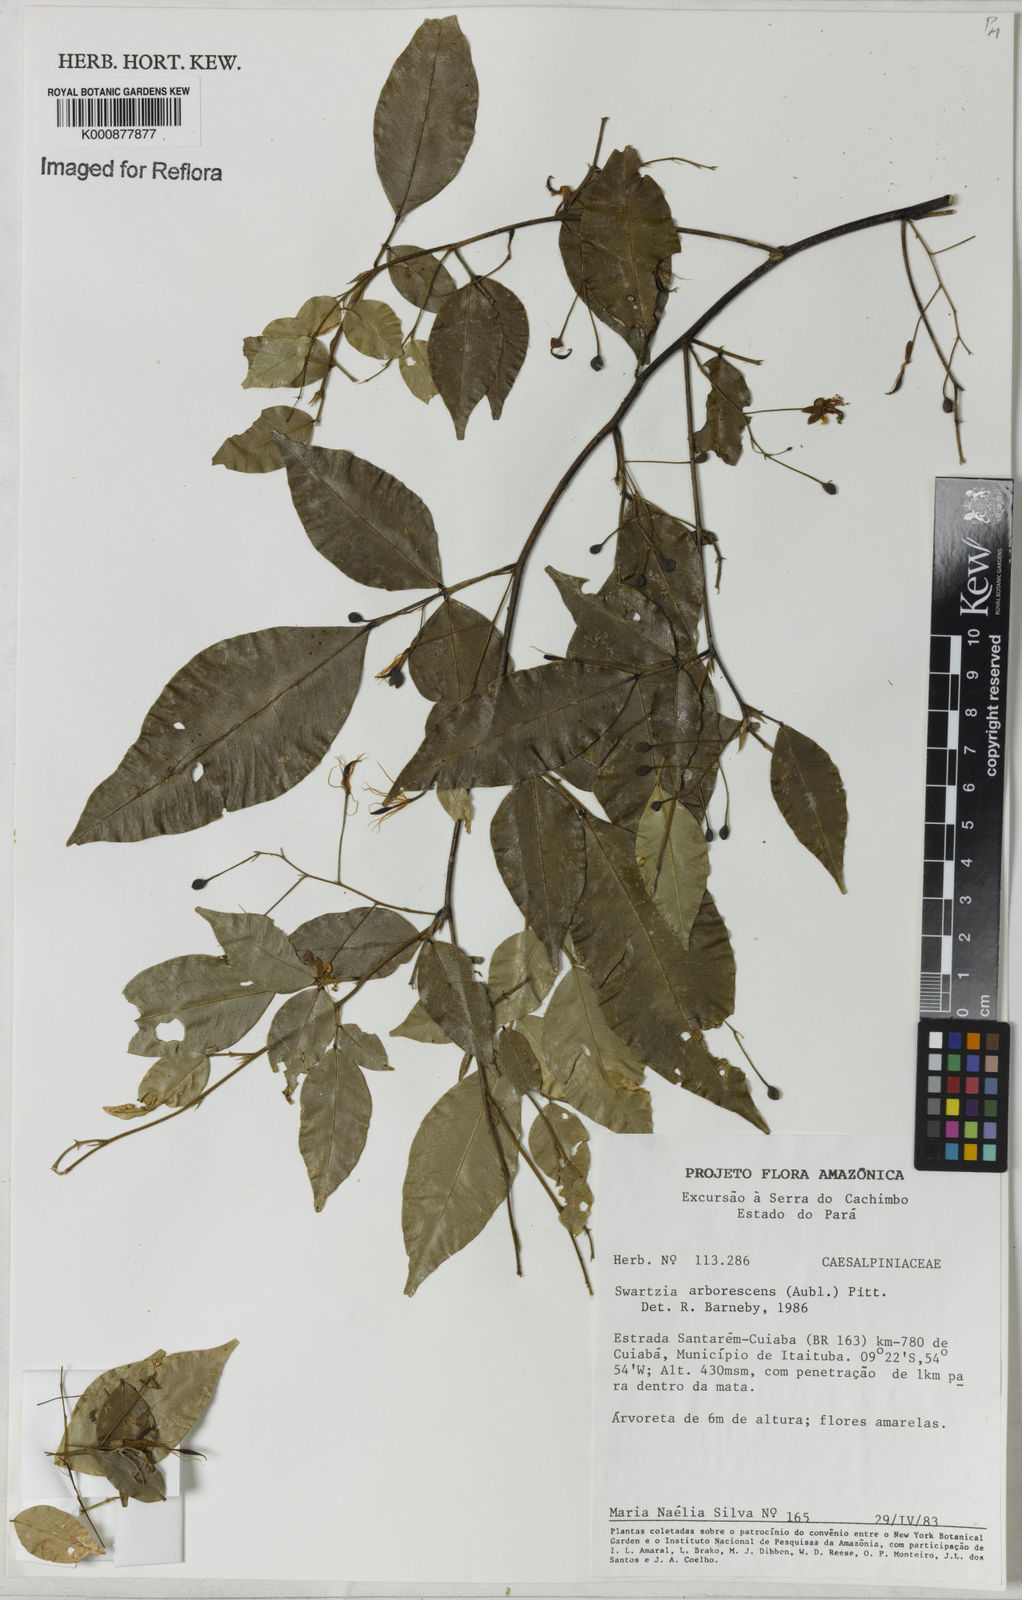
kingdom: Plantae
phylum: Tracheophyta
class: Magnoliopsida
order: Fabales
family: Fabaceae
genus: Swartzia
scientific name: Swartzia arborescens
